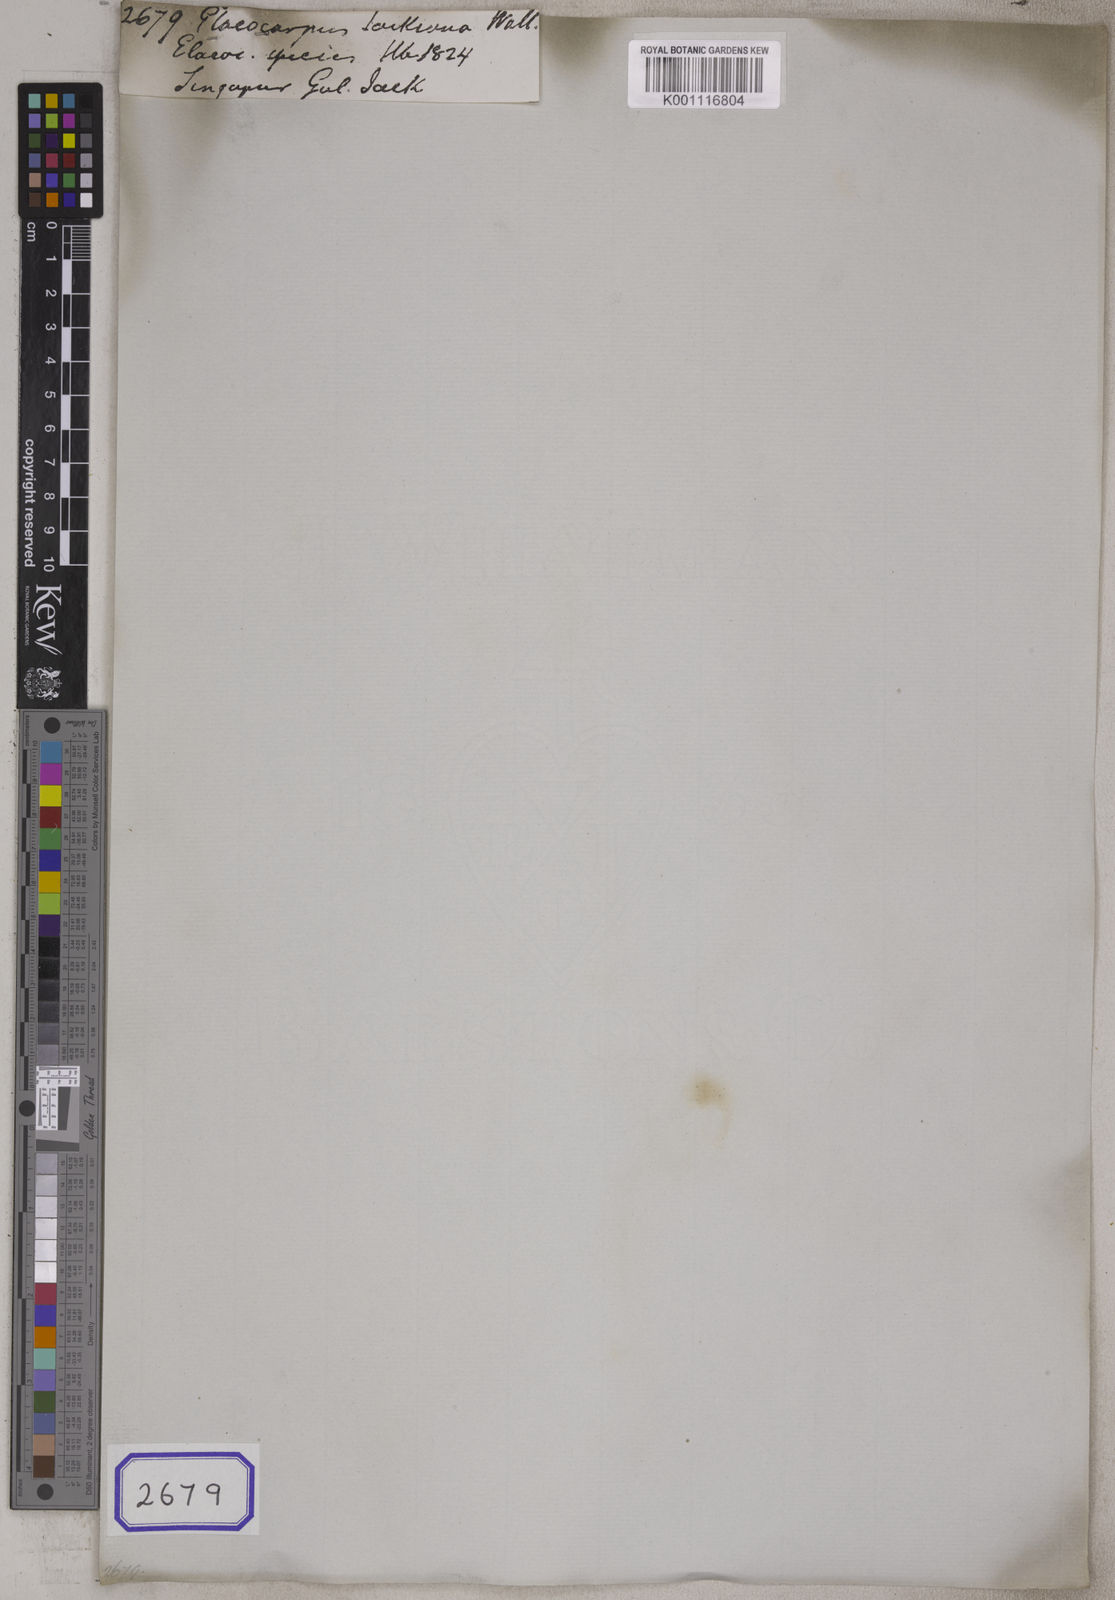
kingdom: Plantae
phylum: Tracheophyta
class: Magnoliopsida
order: Oxalidales
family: Elaeocarpaceae
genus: Elaeocarpus
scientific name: Elaeocarpus
